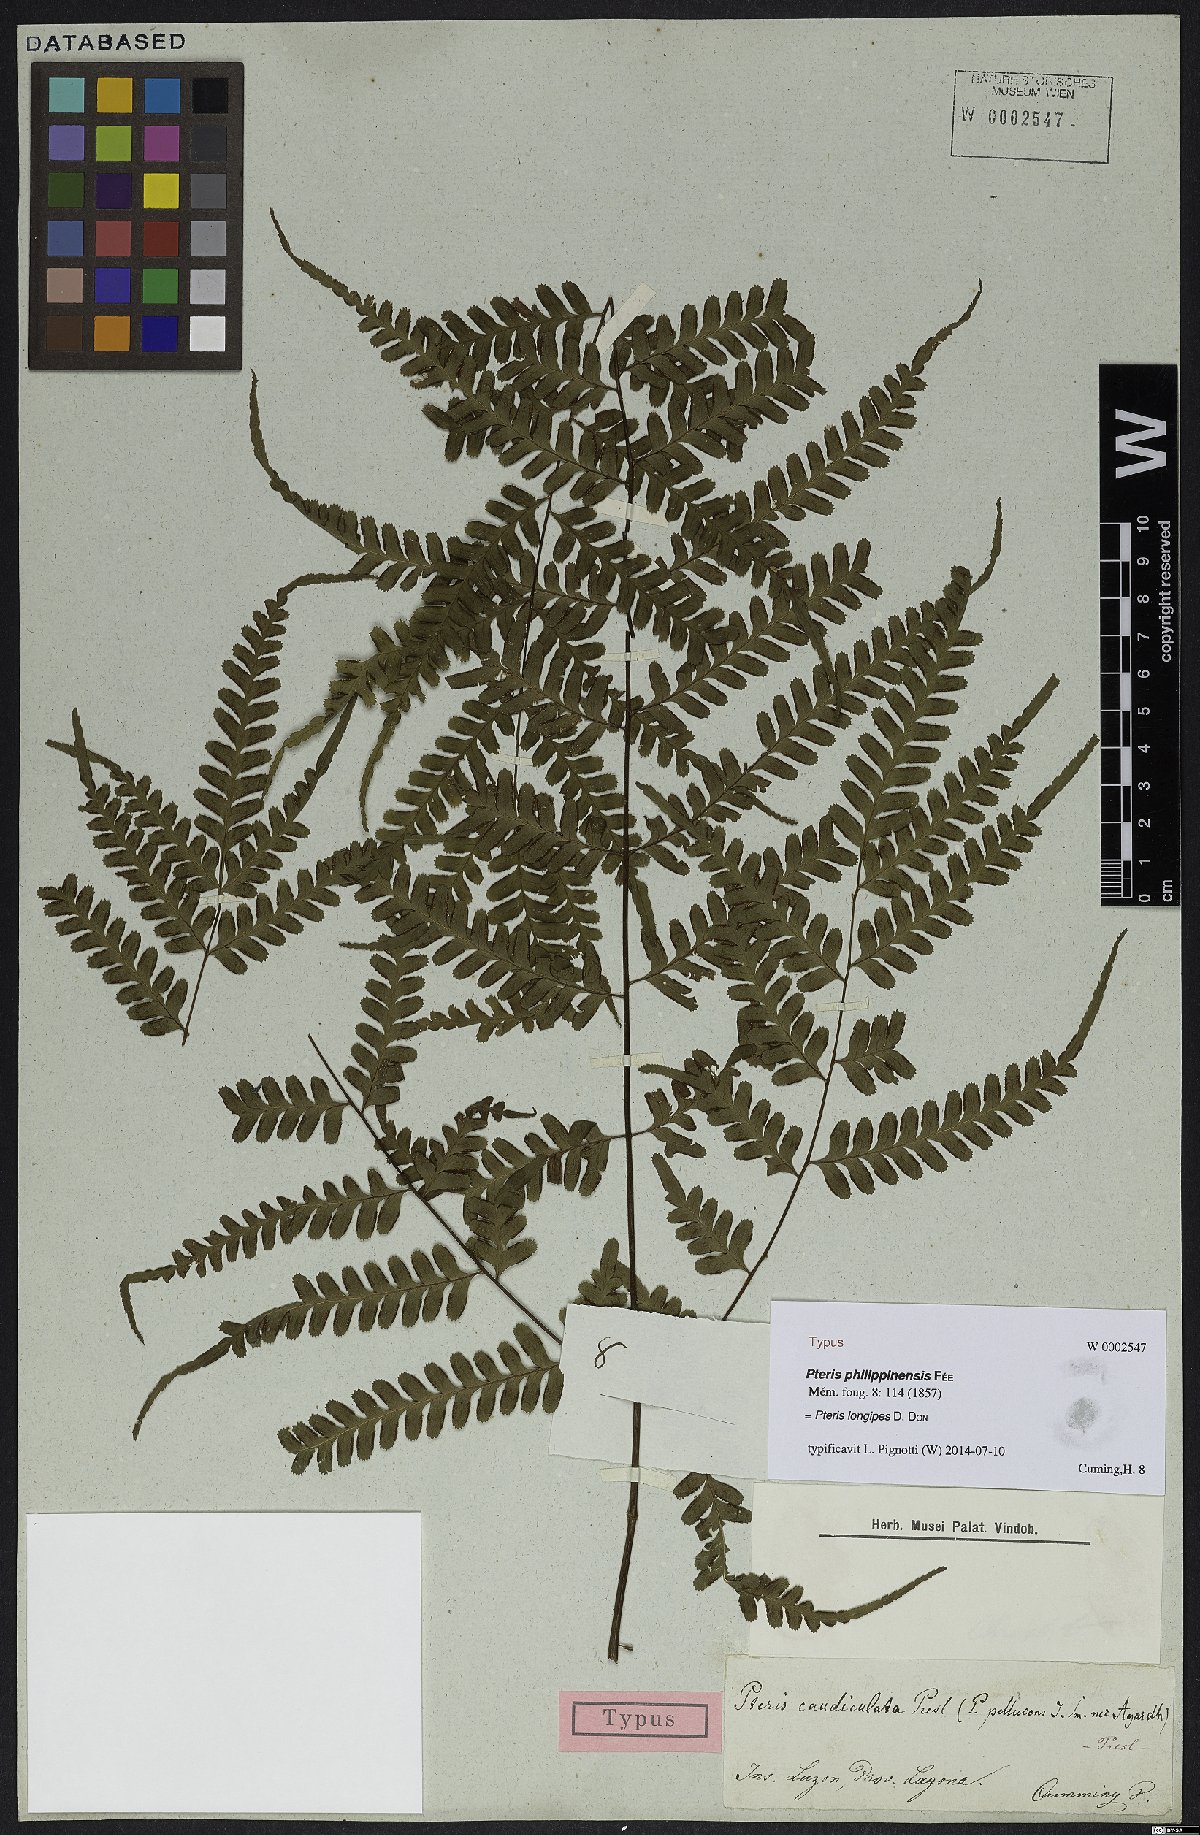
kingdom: Plantae
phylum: Tracheophyta
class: Polypodiopsida
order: Polypodiales
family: Pteridaceae
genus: Pteris
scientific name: Pteris longipes
